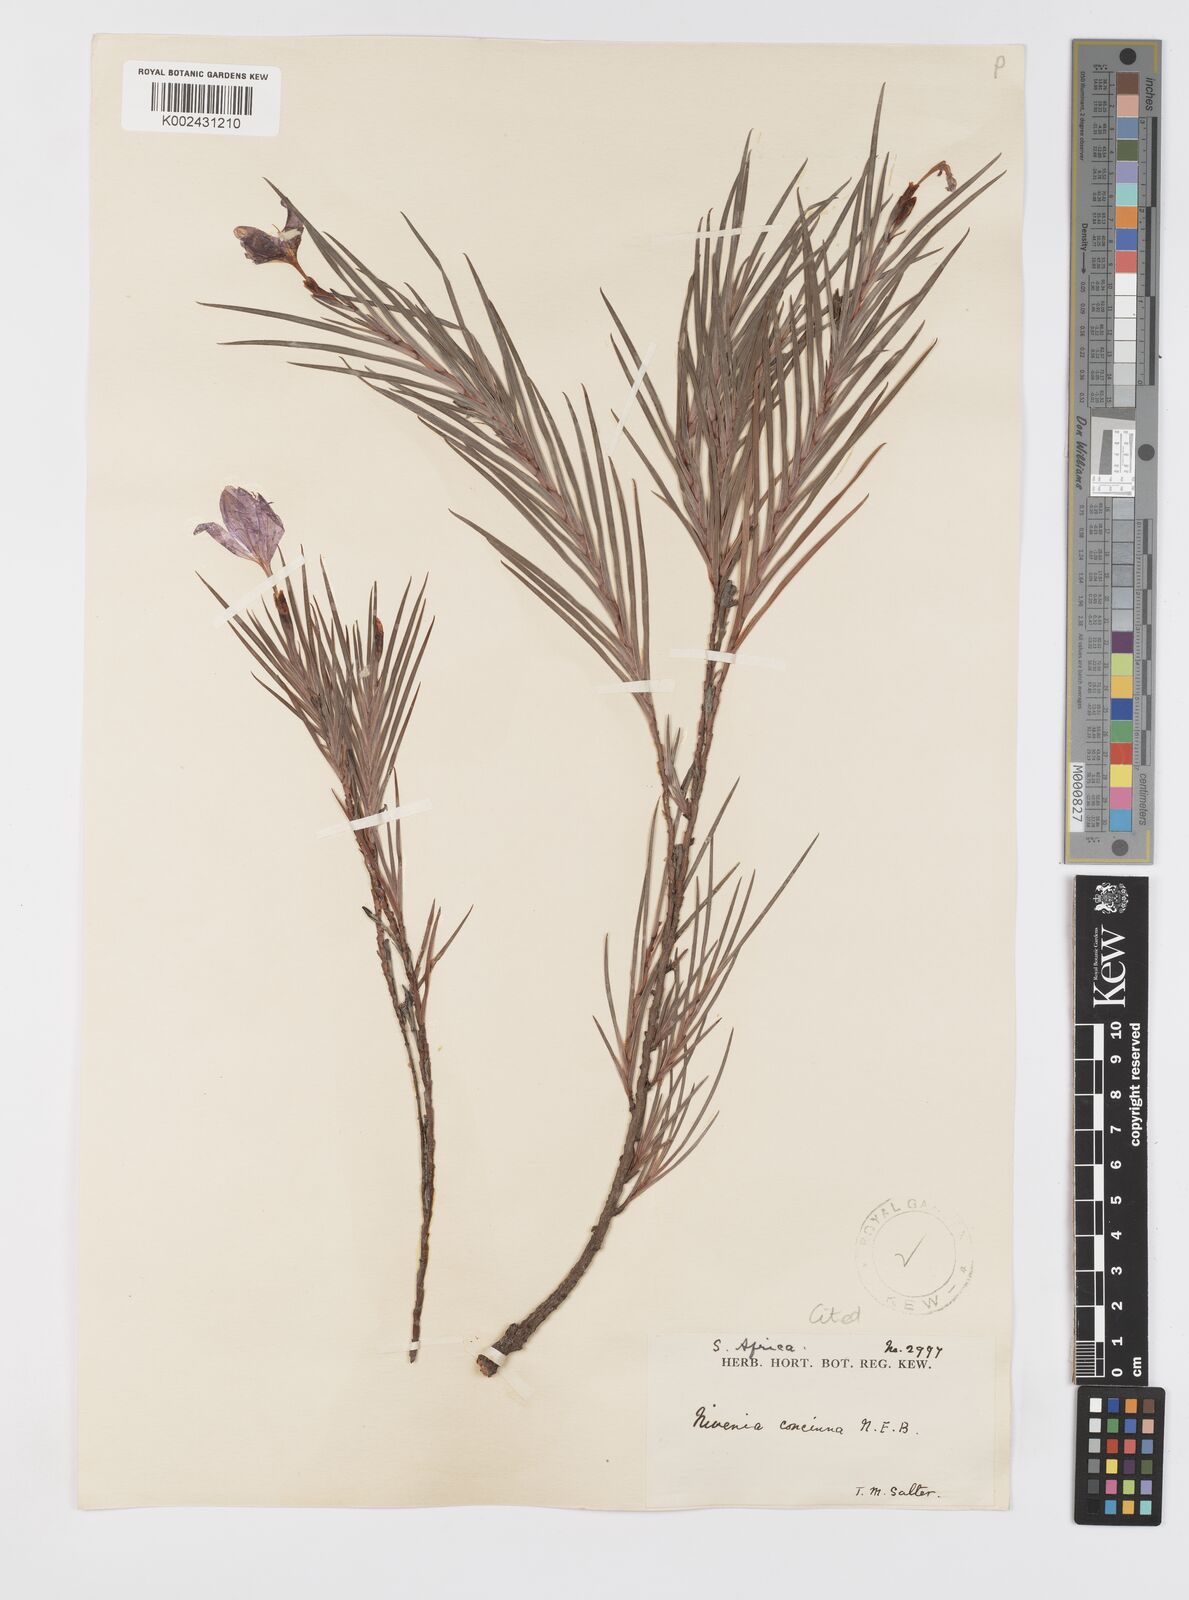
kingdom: Plantae
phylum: Tracheophyta
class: Liliopsida
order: Asparagales
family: Iridaceae
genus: Nivenia
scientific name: Nivenia concinna
